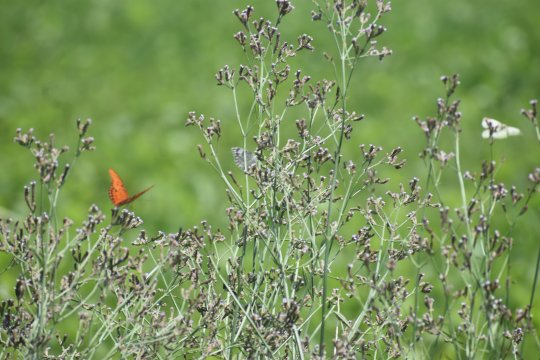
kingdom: Animalia
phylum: Arthropoda
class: Insecta
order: Lepidoptera
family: Pieridae
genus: Pontia
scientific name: Pontia protodice
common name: Checkered White
